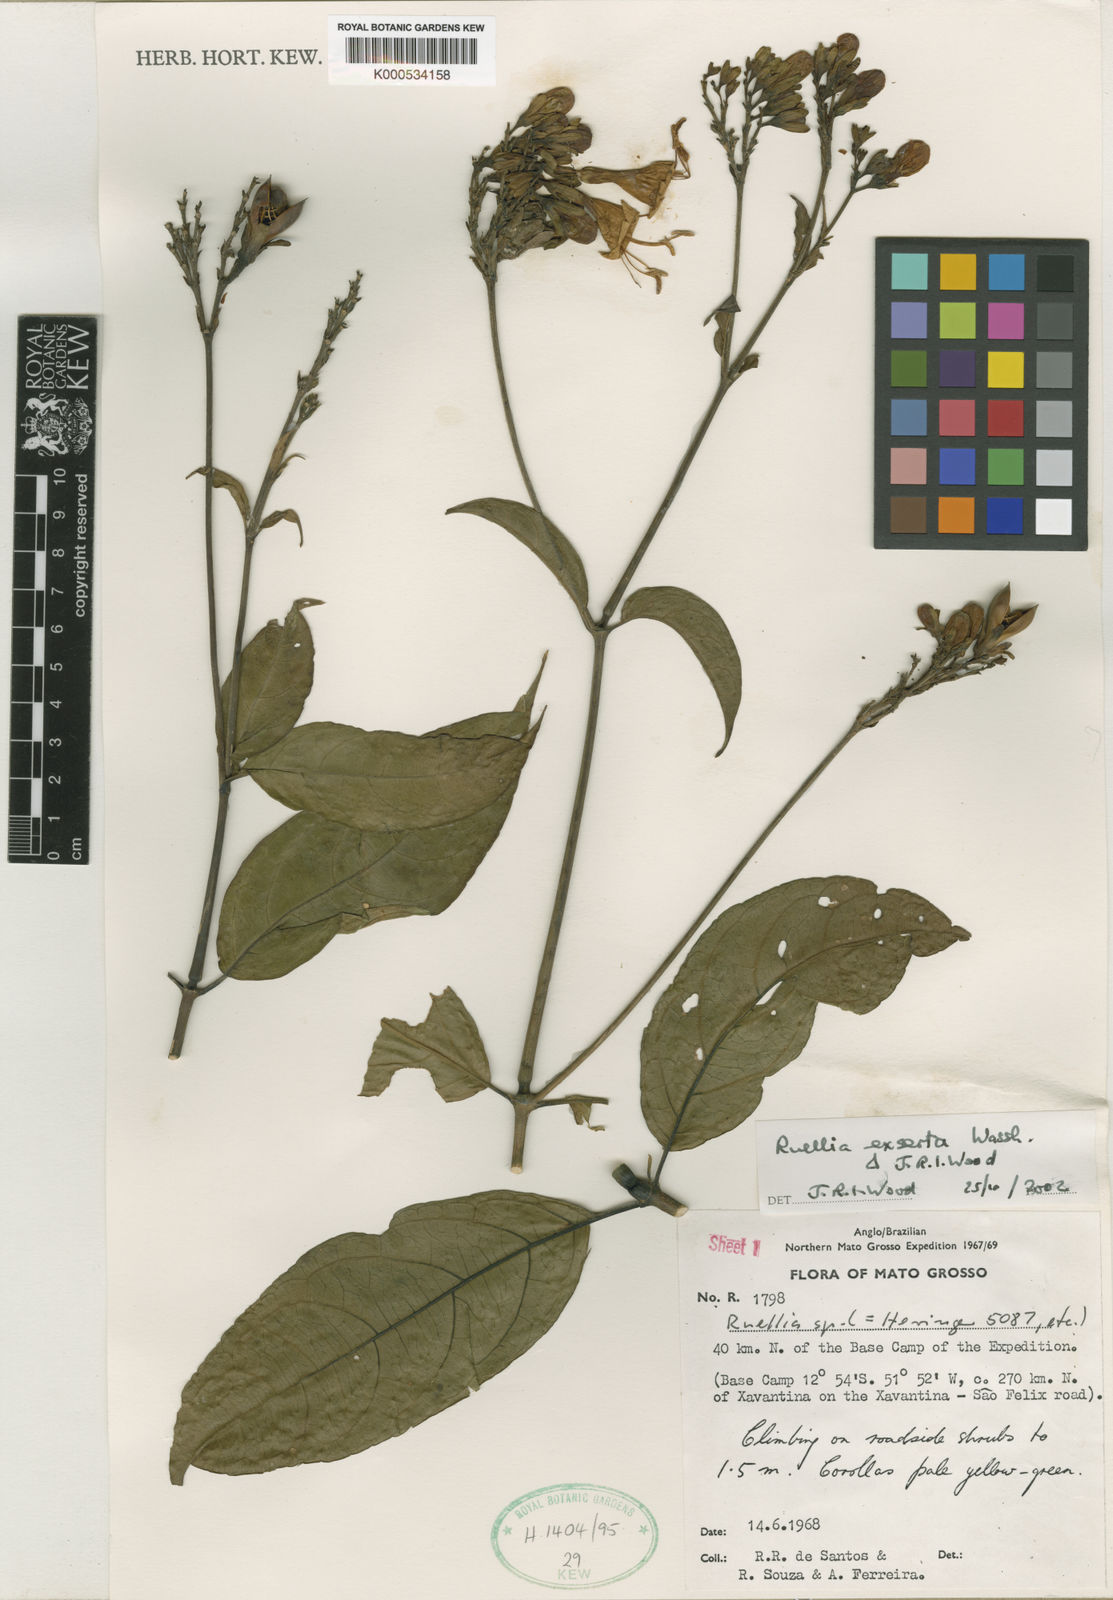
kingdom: Plantae
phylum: Tracheophyta
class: Magnoliopsida
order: Lamiales
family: Acanthaceae
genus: Ruellia
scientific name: Ruellia exserta
